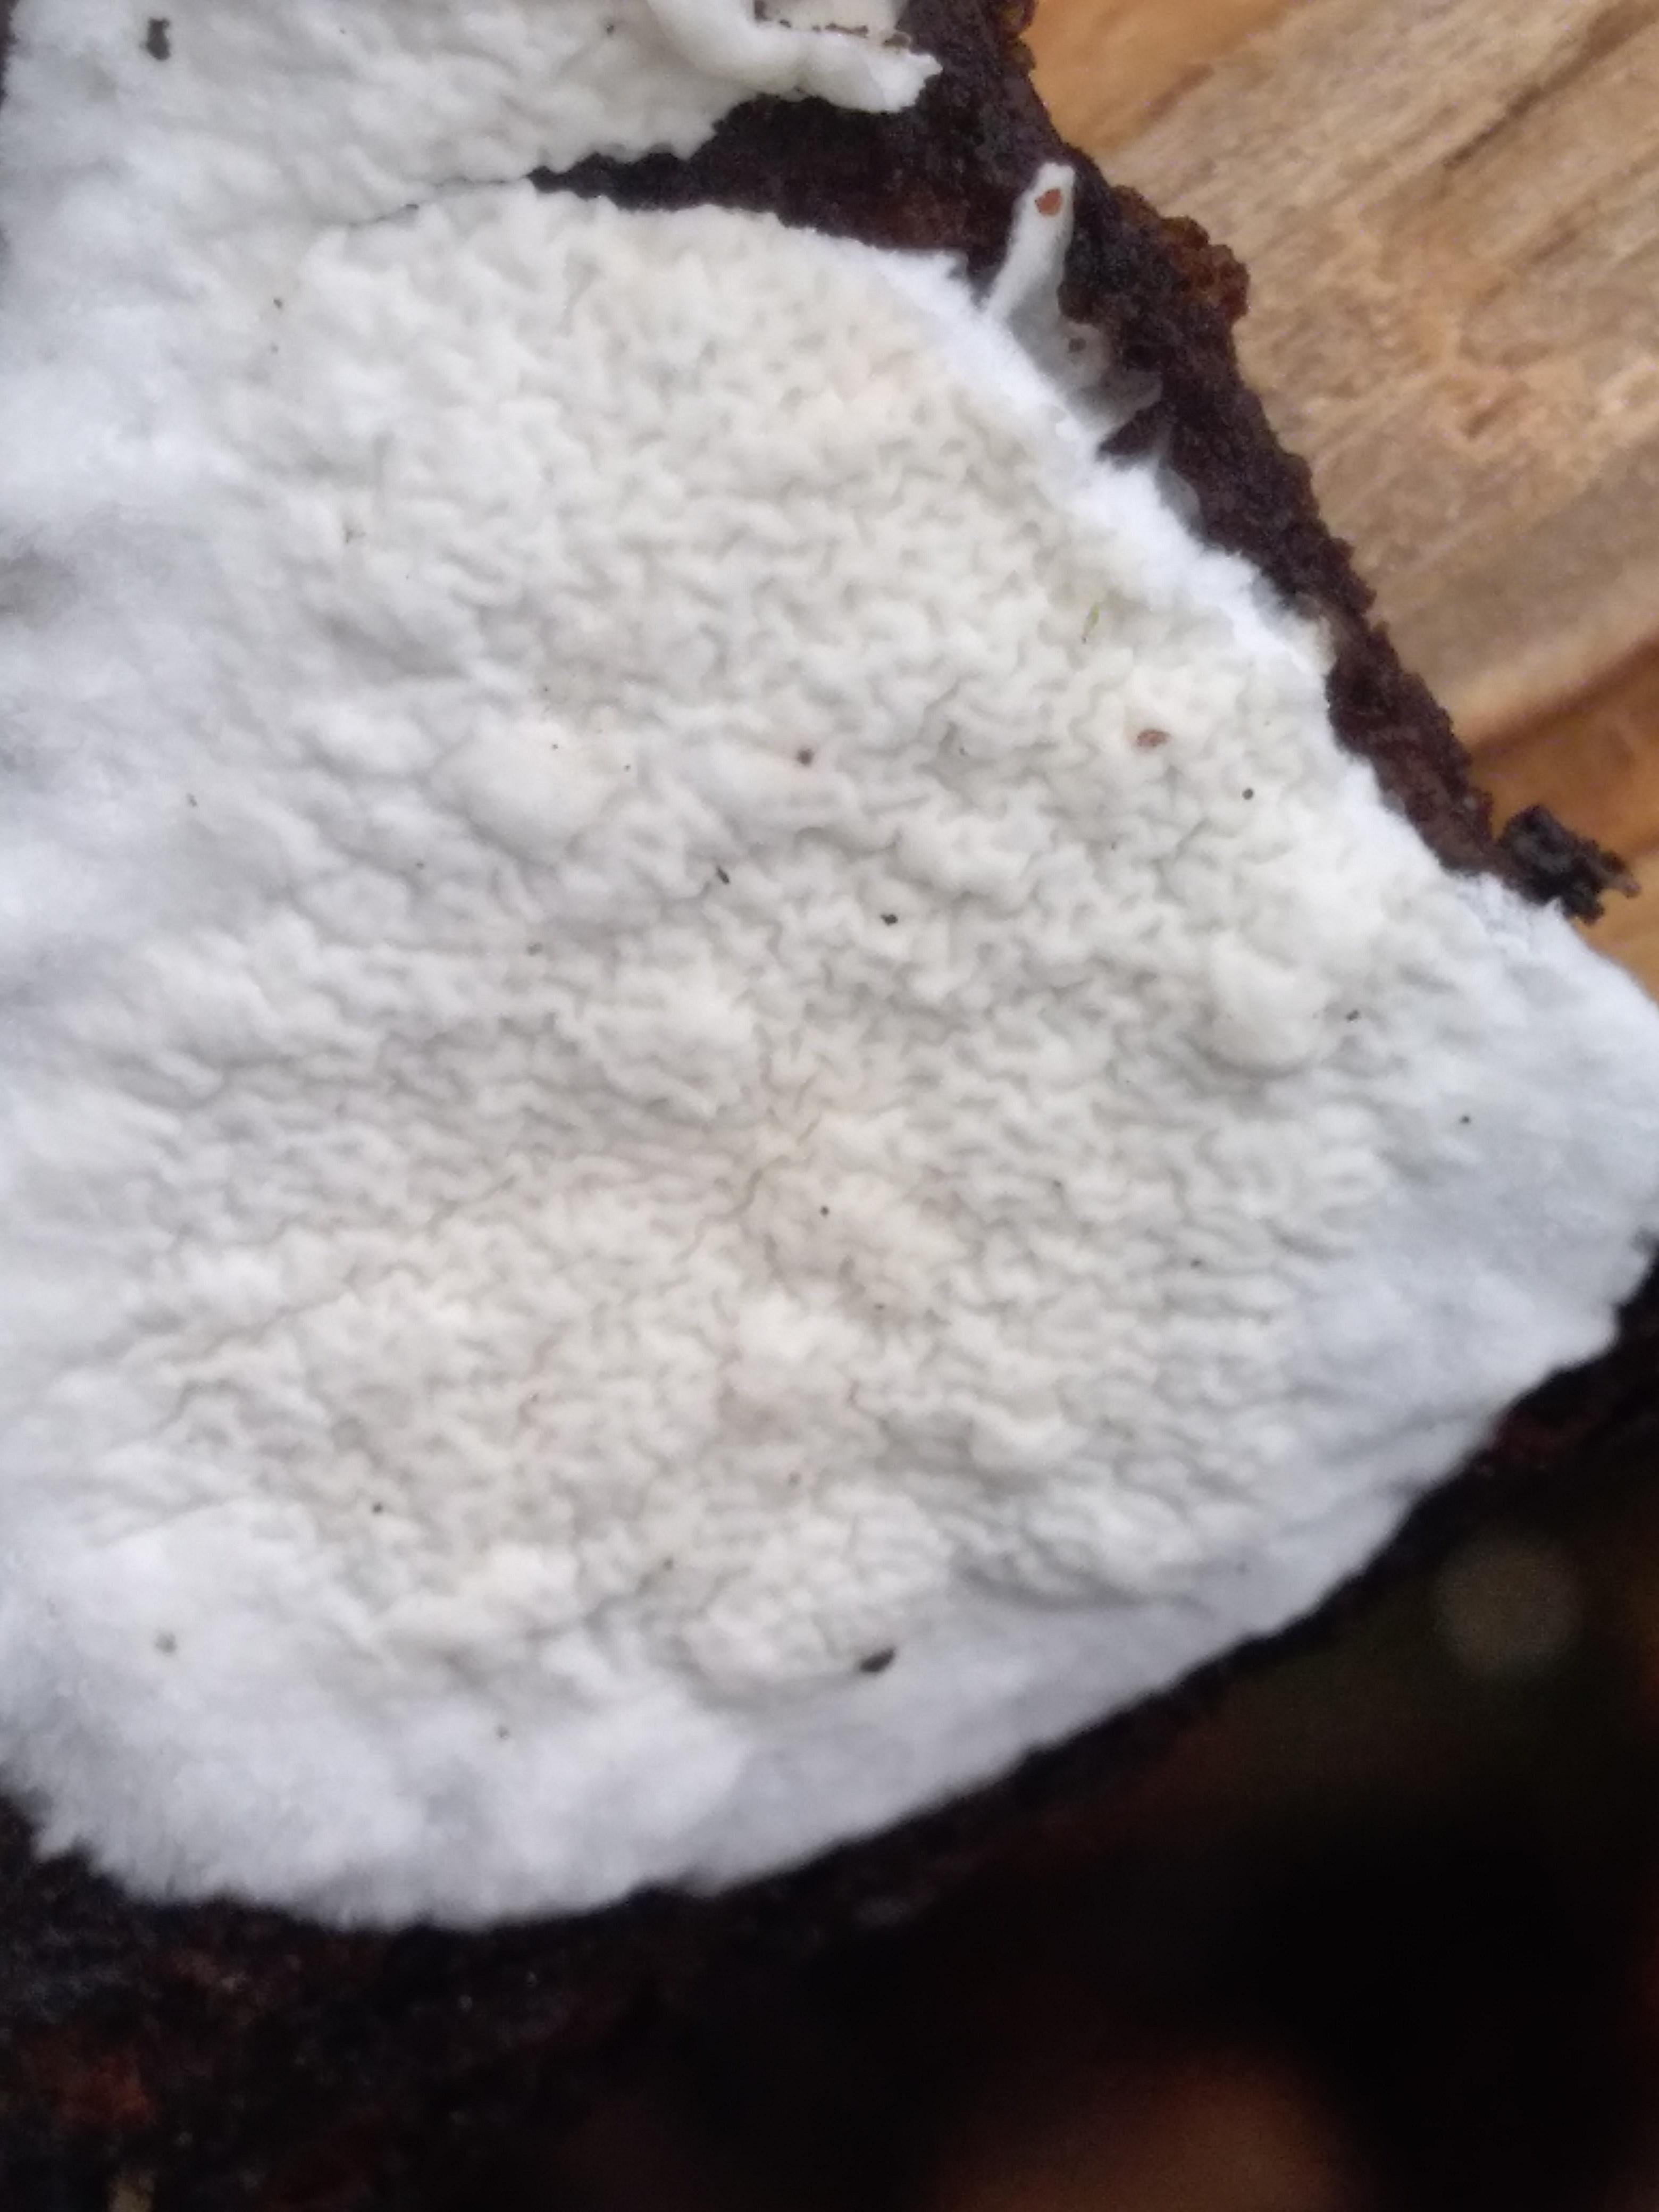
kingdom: Fungi
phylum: Basidiomycota
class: Agaricomycetes
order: Polyporales
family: Irpicaceae
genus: Byssomerulius
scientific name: Byssomerulius corium
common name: læder-åresvamp
